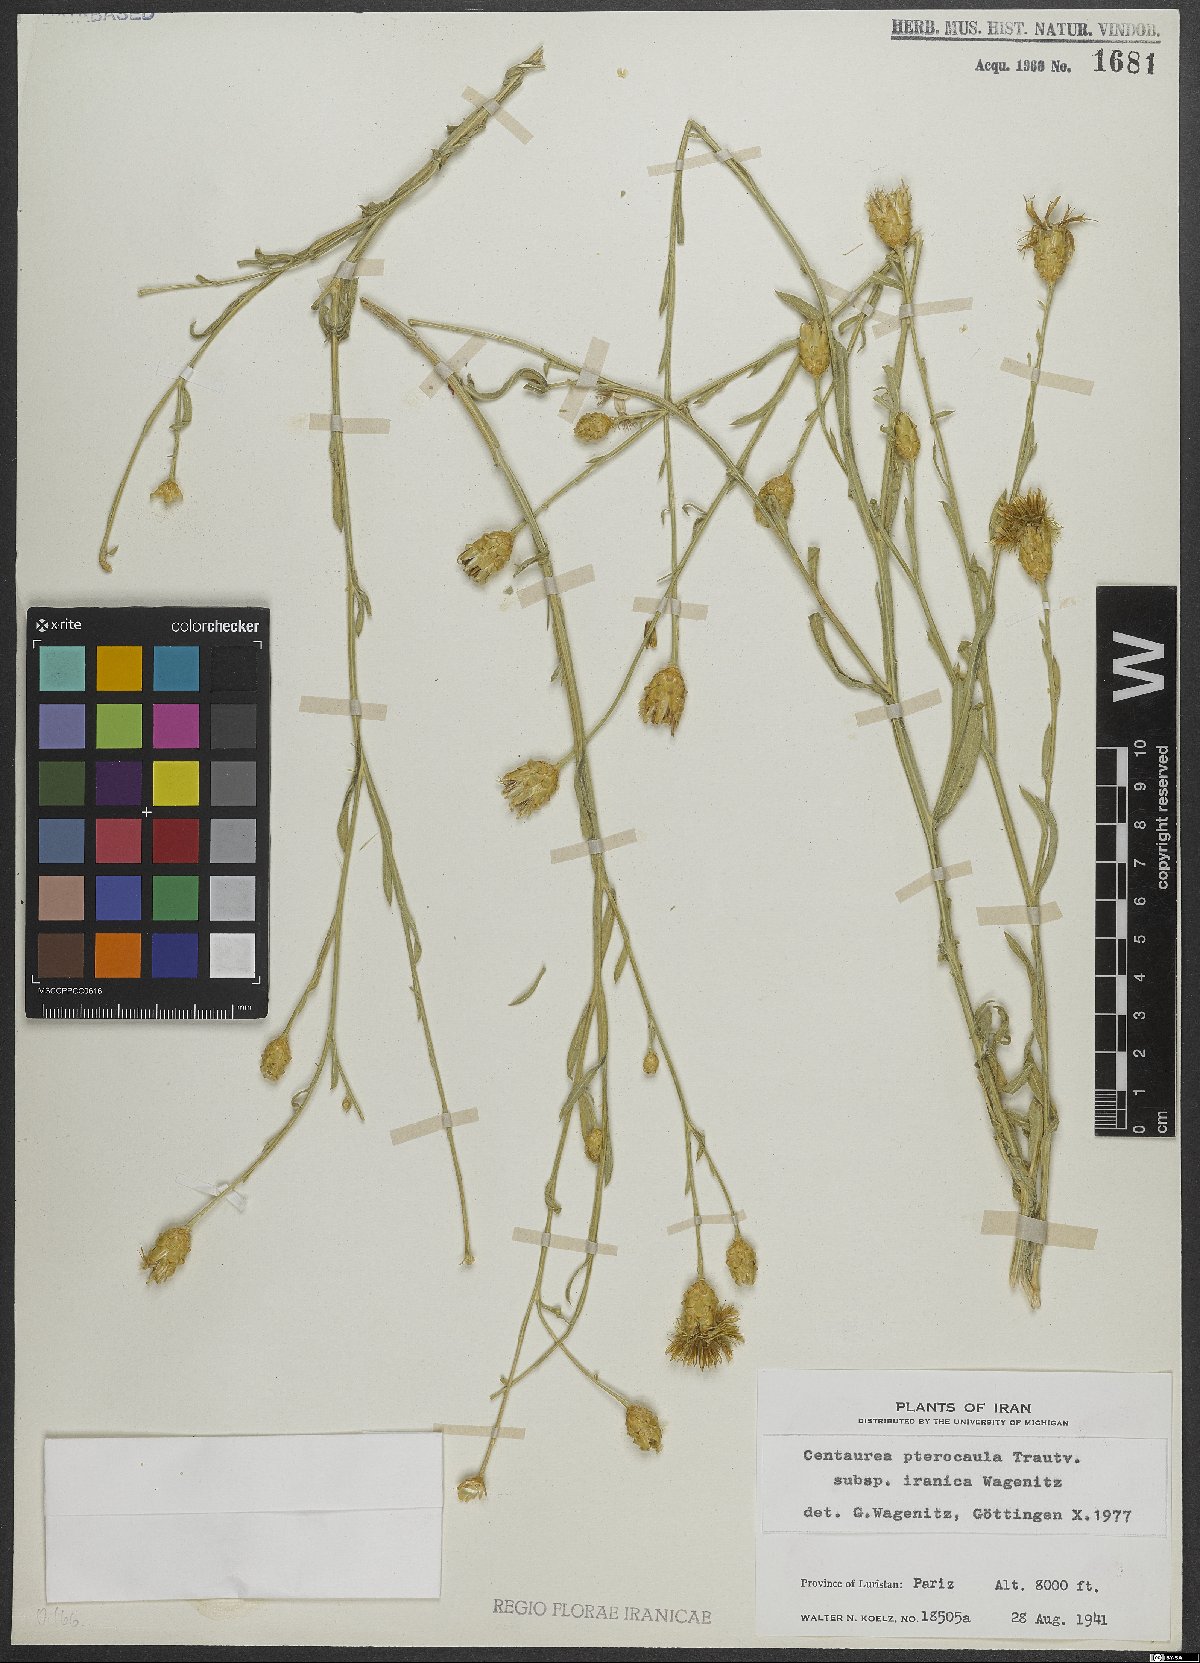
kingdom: Plantae
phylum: Tracheophyta
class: Magnoliopsida
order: Asterales
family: Asteraceae
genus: Centaurea
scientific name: Centaurea pterocaula
